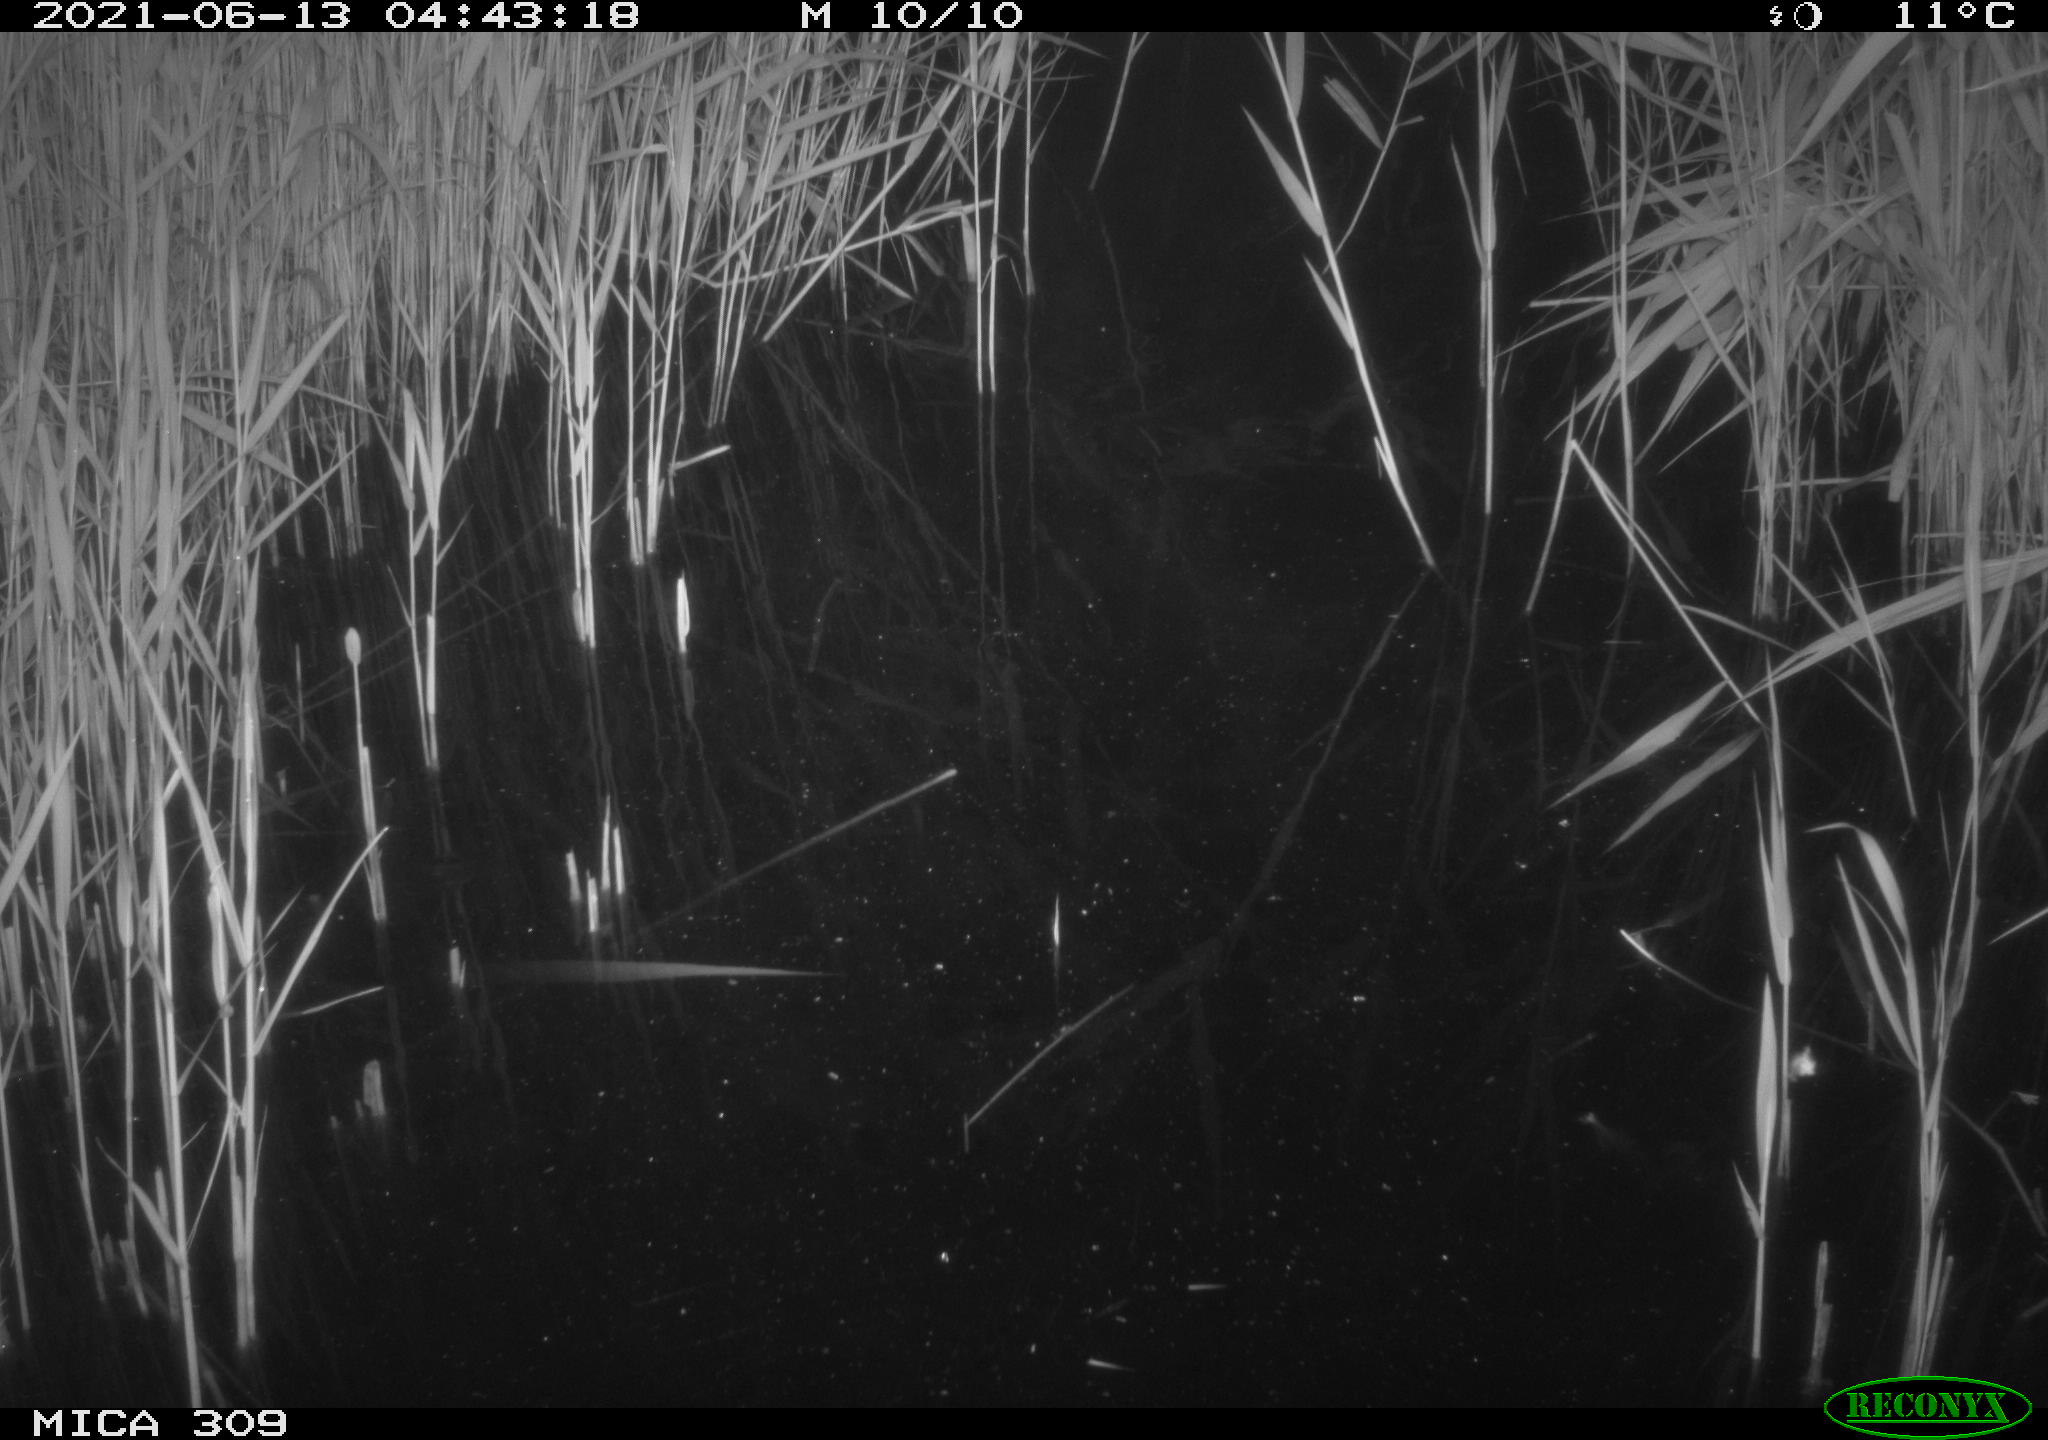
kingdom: Animalia
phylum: Chordata
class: Aves
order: Anseriformes
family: Anatidae
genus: Anas
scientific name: Anas platyrhynchos
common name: Mallard
